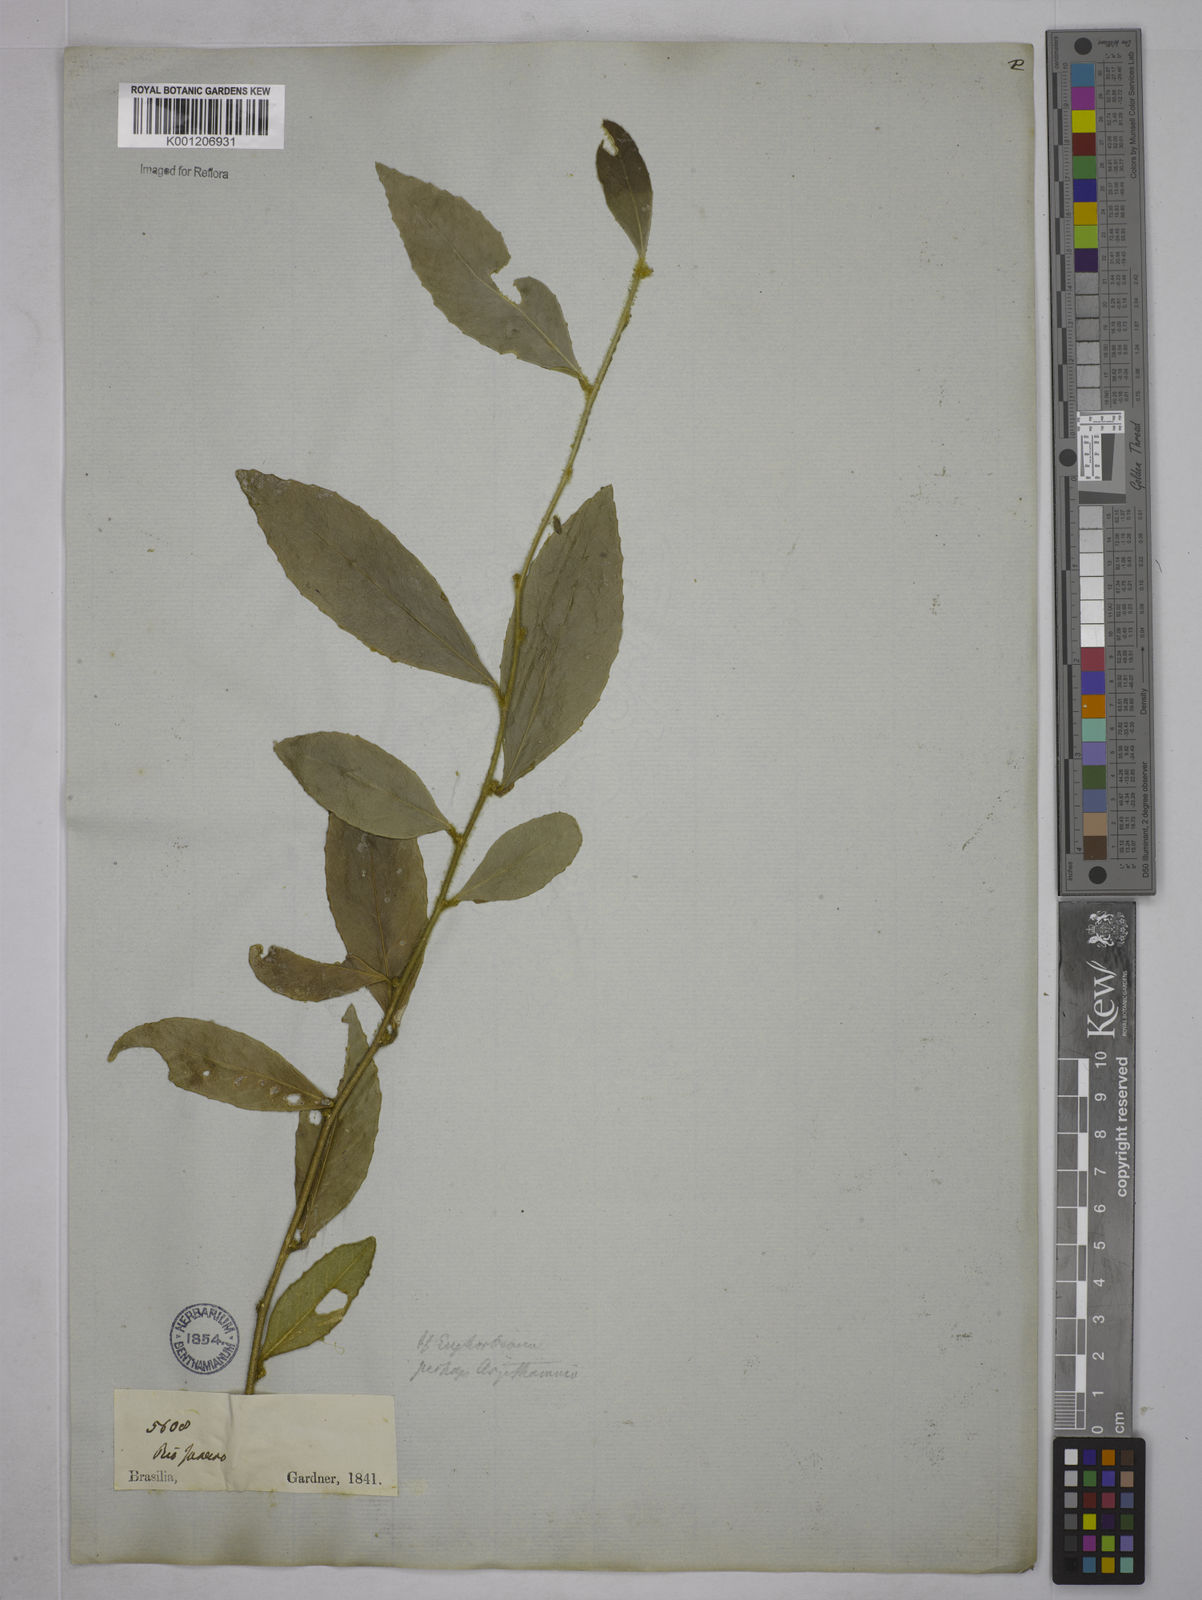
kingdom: Plantae
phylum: Tracheophyta
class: Magnoliopsida
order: Malpighiales
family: Euphorbiaceae
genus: Bernardia
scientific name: Bernardia axillaris
